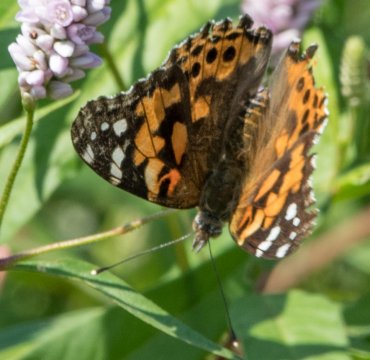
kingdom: Animalia
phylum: Arthropoda
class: Insecta
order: Lepidoptera
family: Nymphalidae
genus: Vanessa
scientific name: Vanessa cardui
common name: Painted Lady
